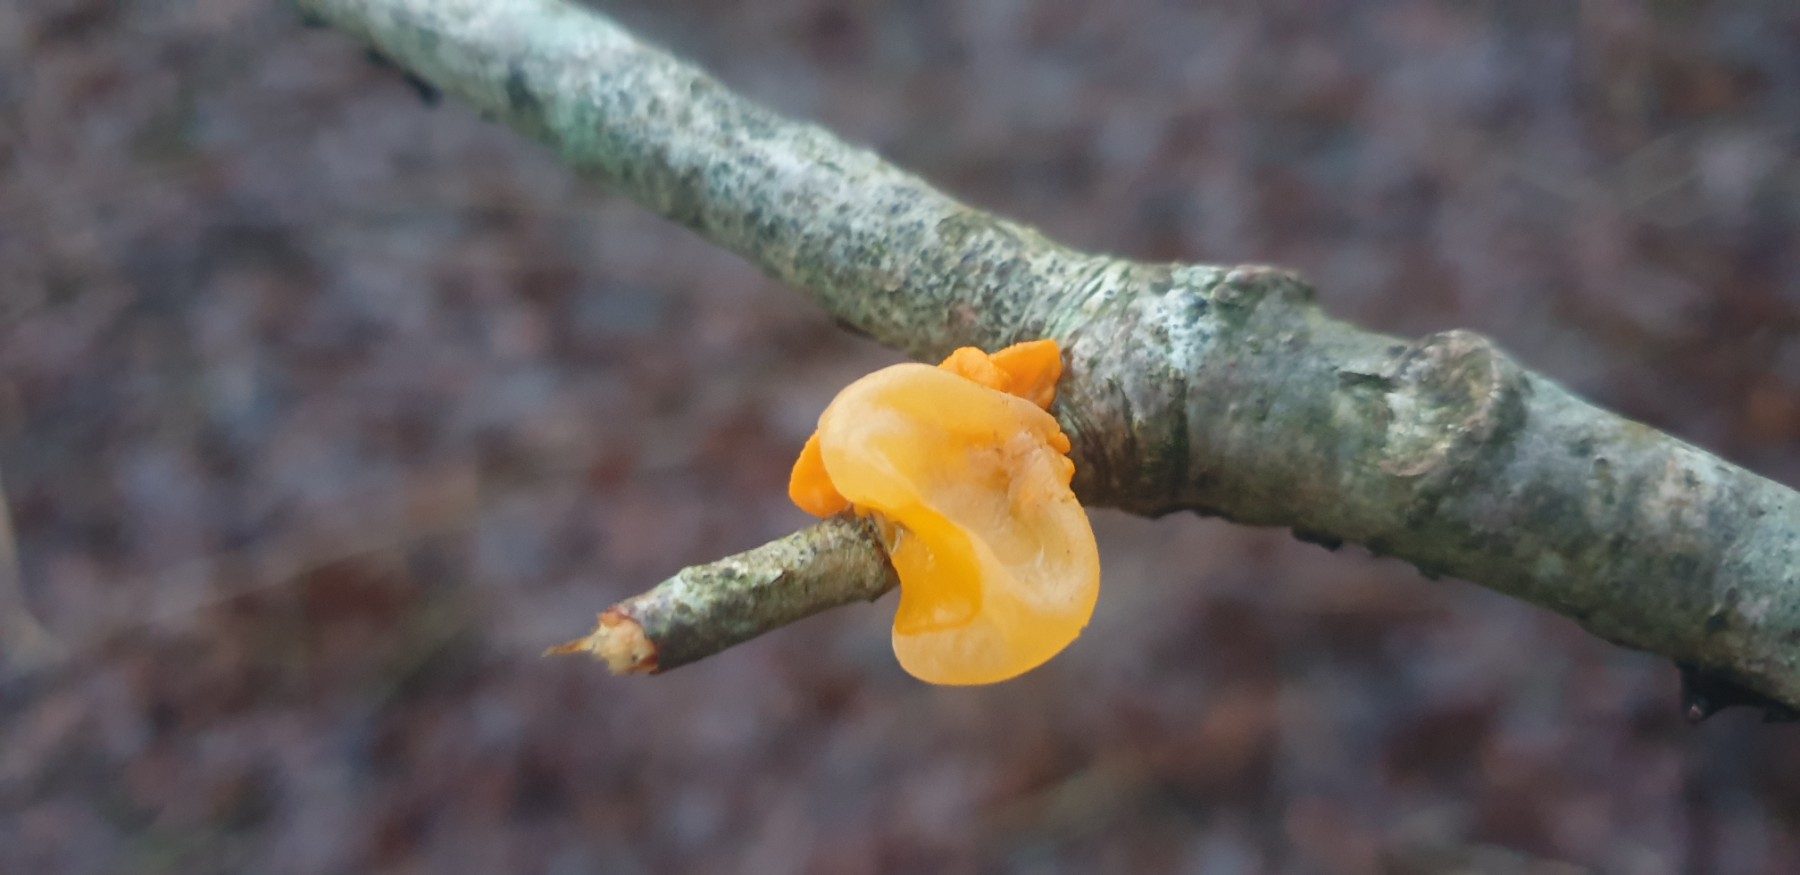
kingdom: Fungi
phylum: Basidiomycota
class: Tremellomycetes
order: Tremellales
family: Tremellaceae
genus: Tremella
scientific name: Tremella mesenterica
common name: gul bævresvamp
